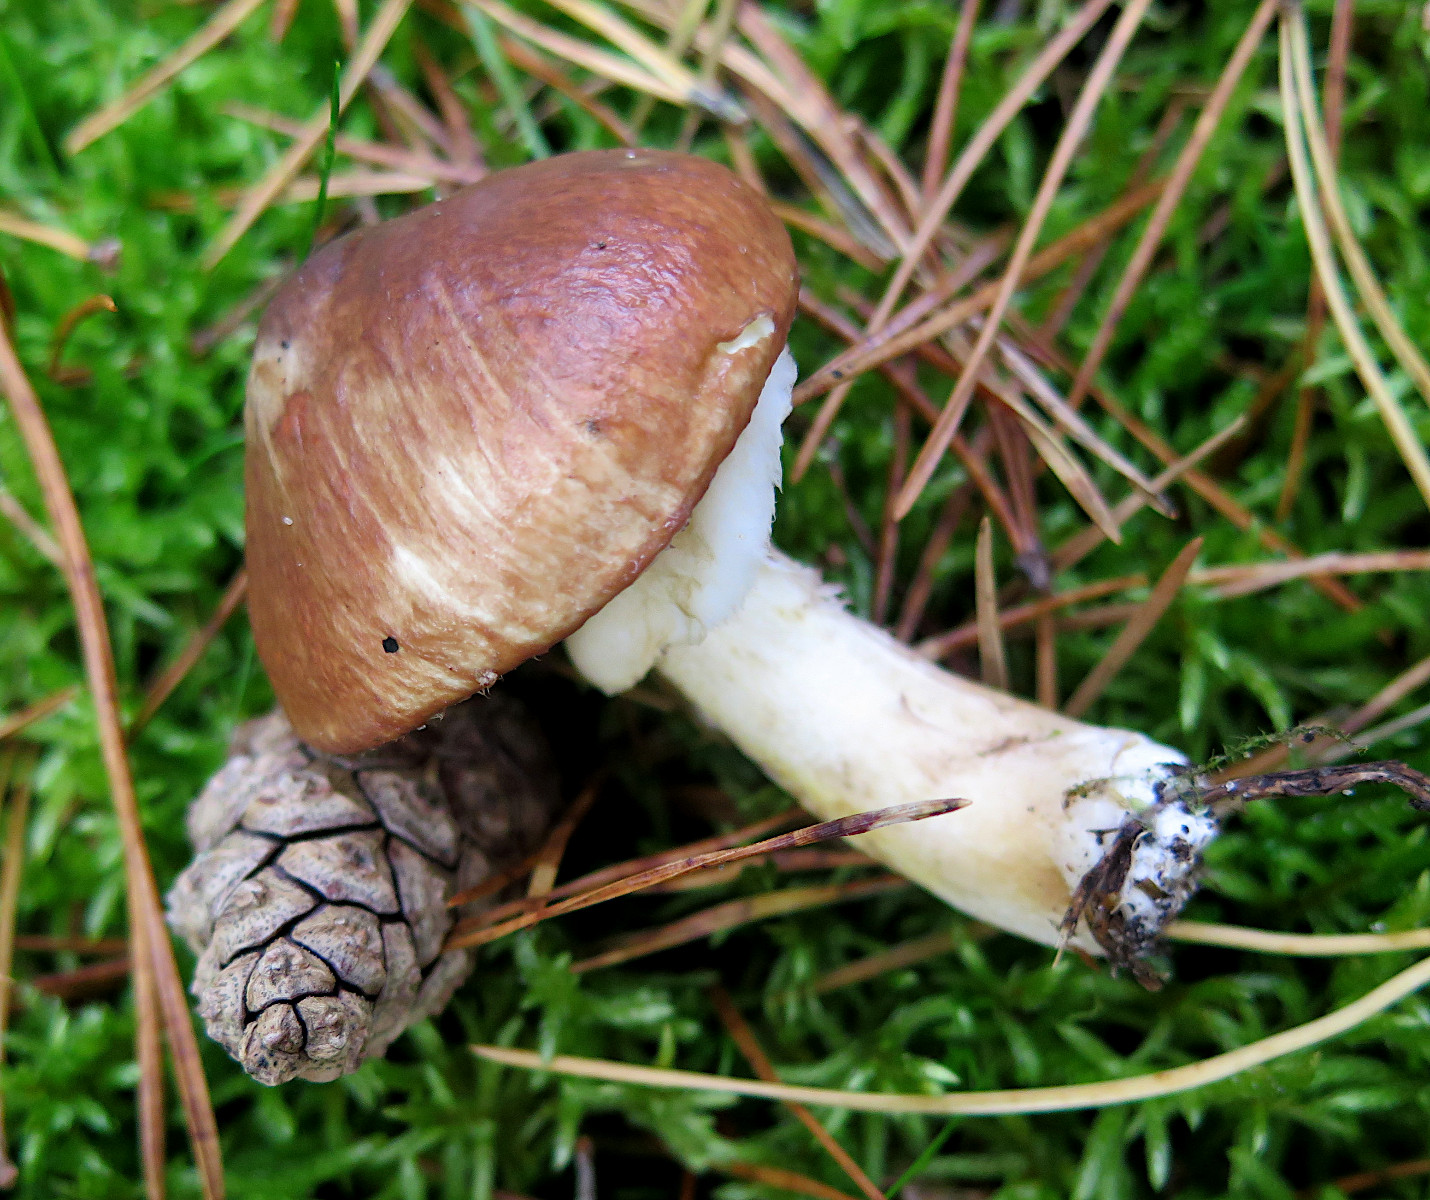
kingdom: Fungi
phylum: Basidiomycota
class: Agaricomycetes
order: Boletales
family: Suillaceae
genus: Suillus
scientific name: Suillus luteus
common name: brungul slimrørhat
